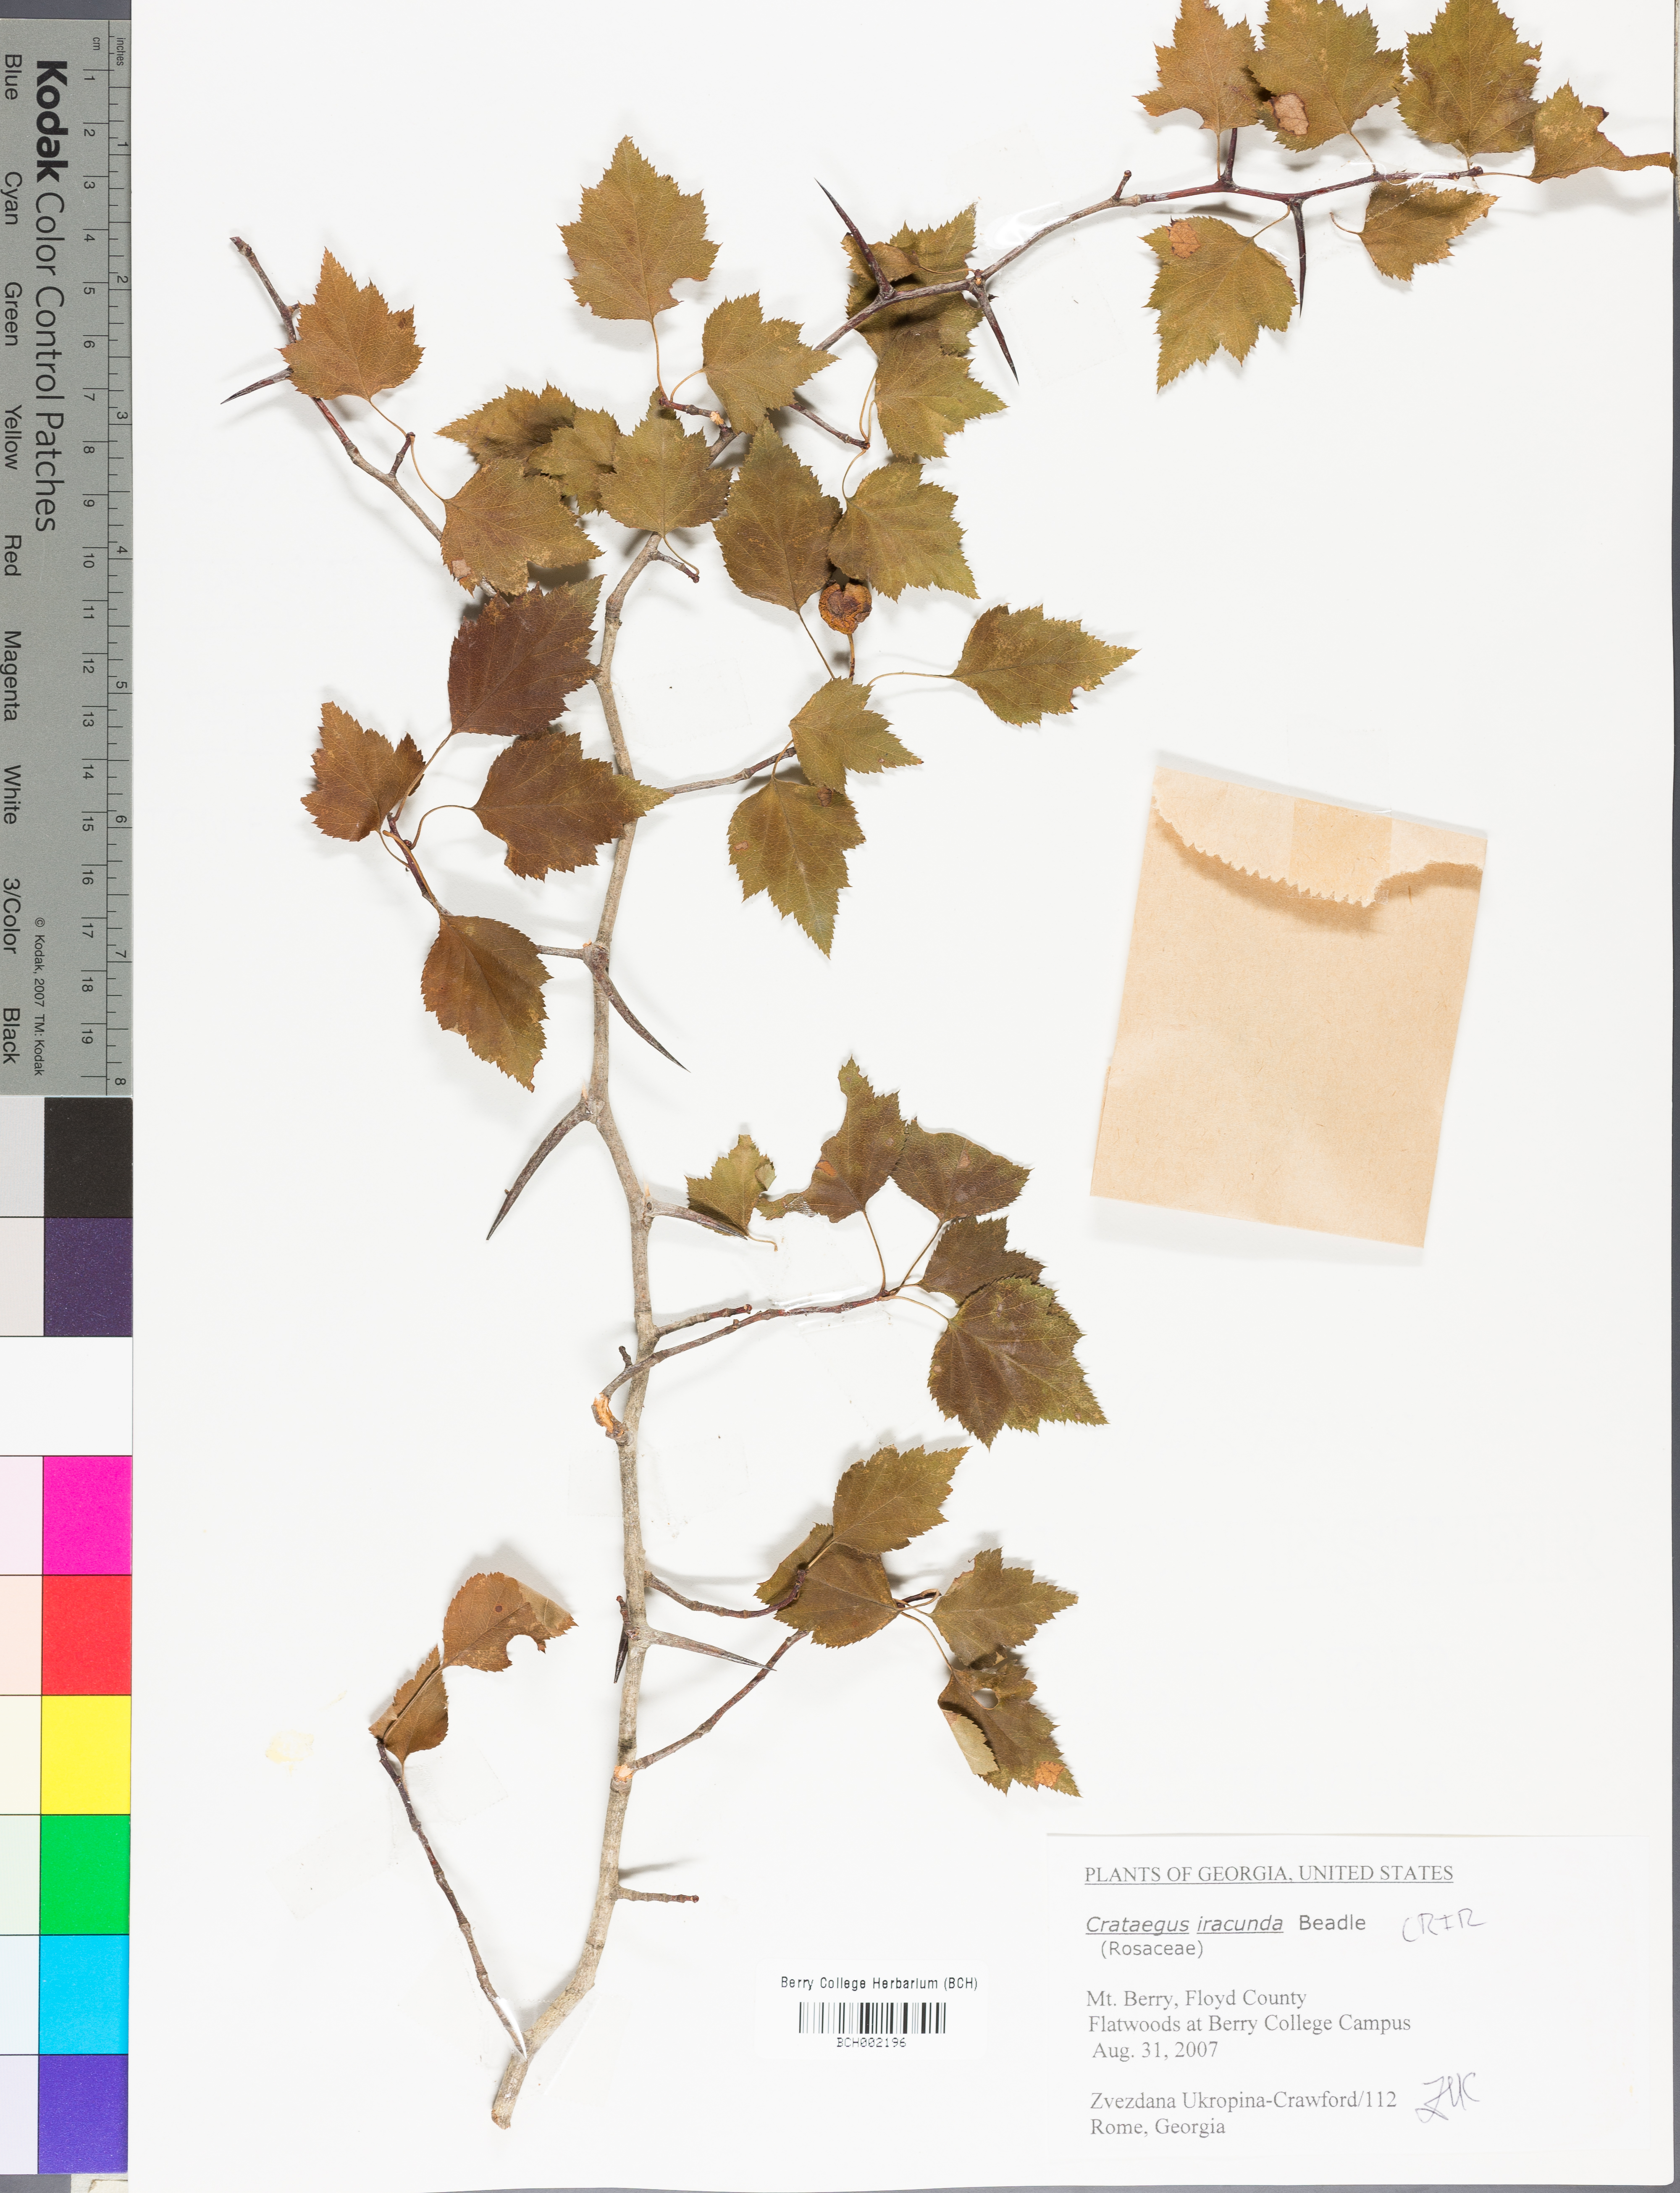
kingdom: Plantae
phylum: Tracheophyta
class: Magnoliopsida
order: Rosales
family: Rosaceae
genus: Crataegus
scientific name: Crataegus iracunda
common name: Stolon-bearing hawthorn
